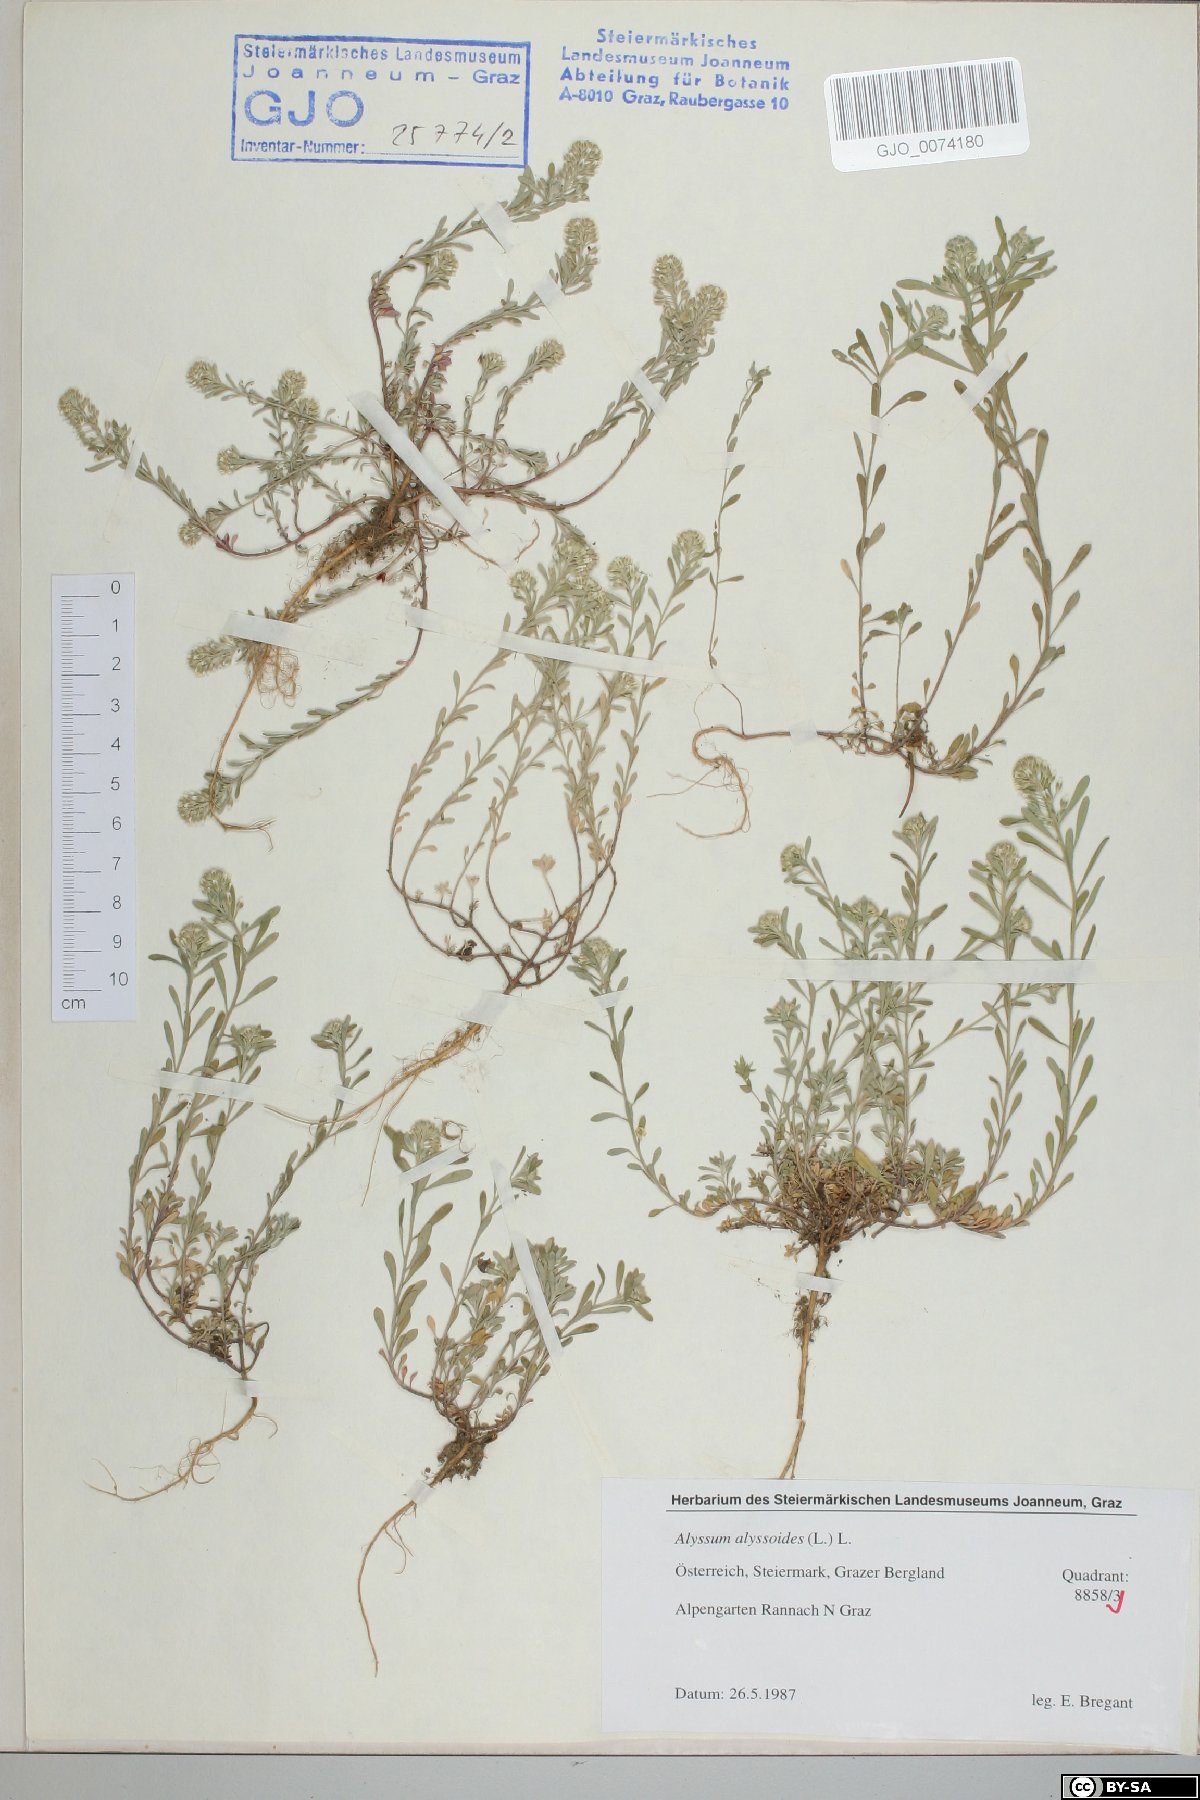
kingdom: Plantae
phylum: Tracheophyta
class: Magnoliopsida
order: Brassicales
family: Brassicaceae
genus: Alyssum
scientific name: Alyssum alyssoides
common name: Small alison
